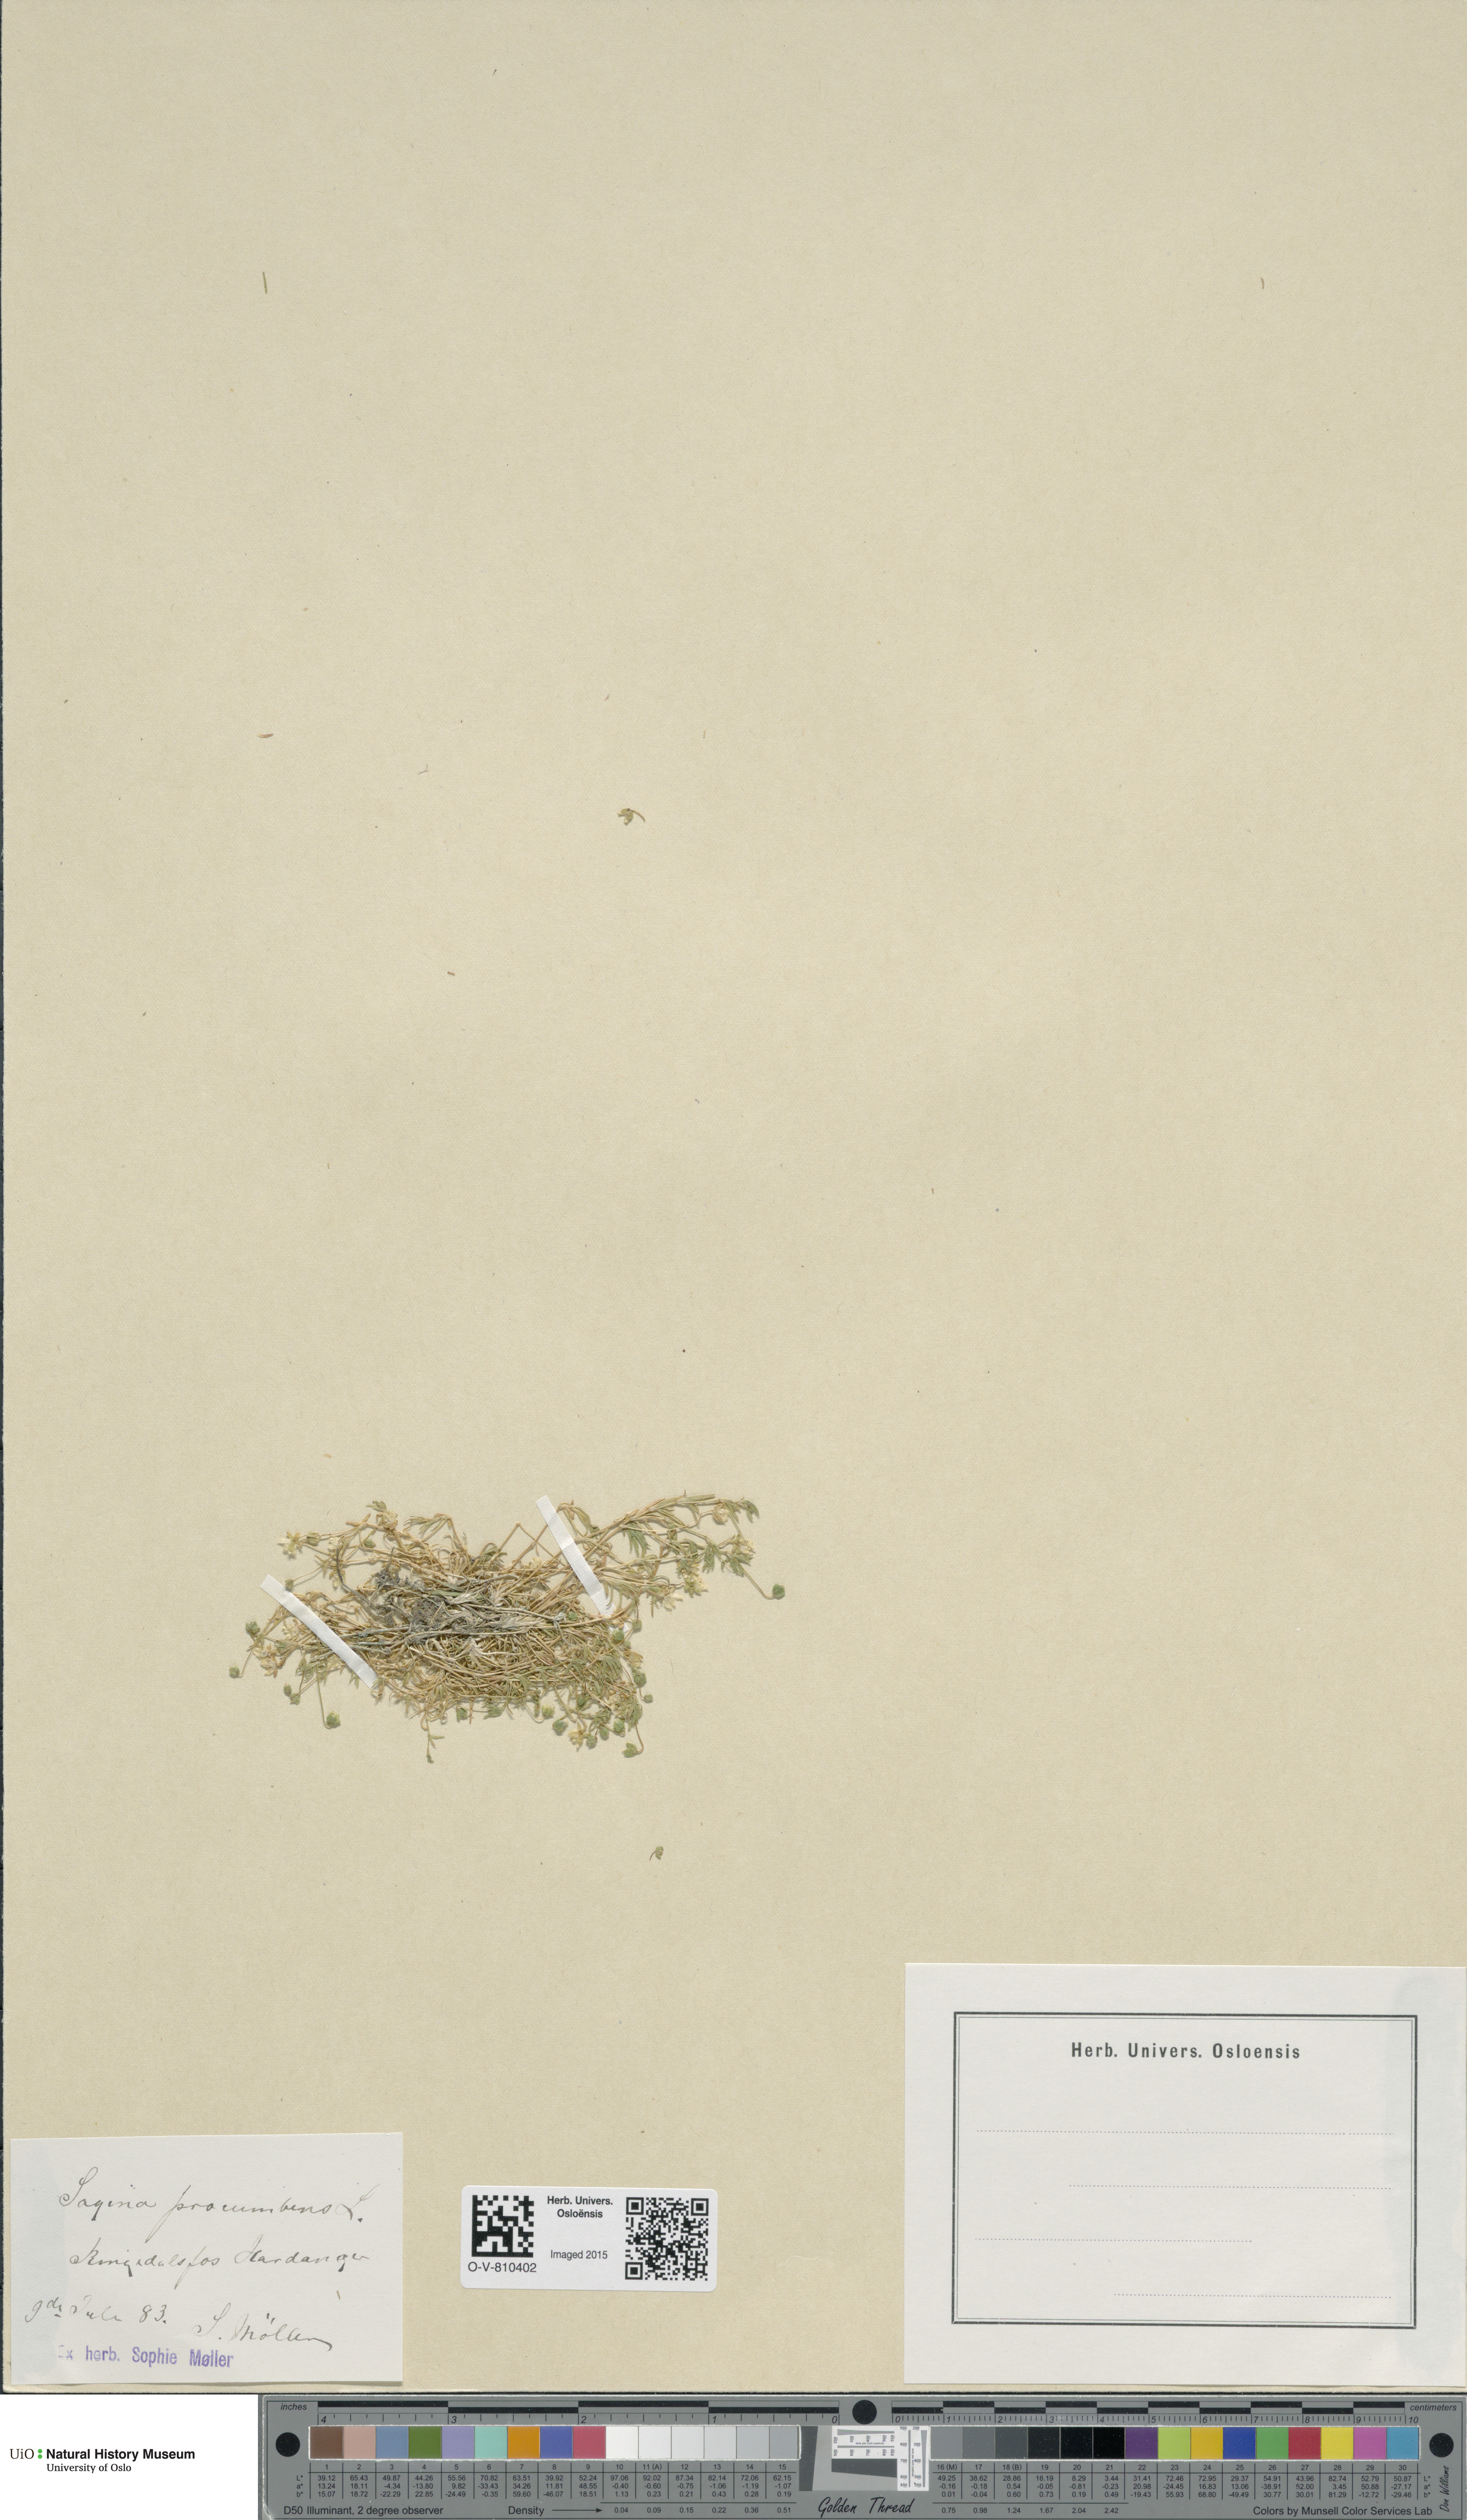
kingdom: Plantae
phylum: Tracheophyta
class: Magnoliopsida
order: Caryophyllales
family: Caryophyllaceae
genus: Sagina
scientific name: Sagina procumbens
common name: Procumbent pearlwort
